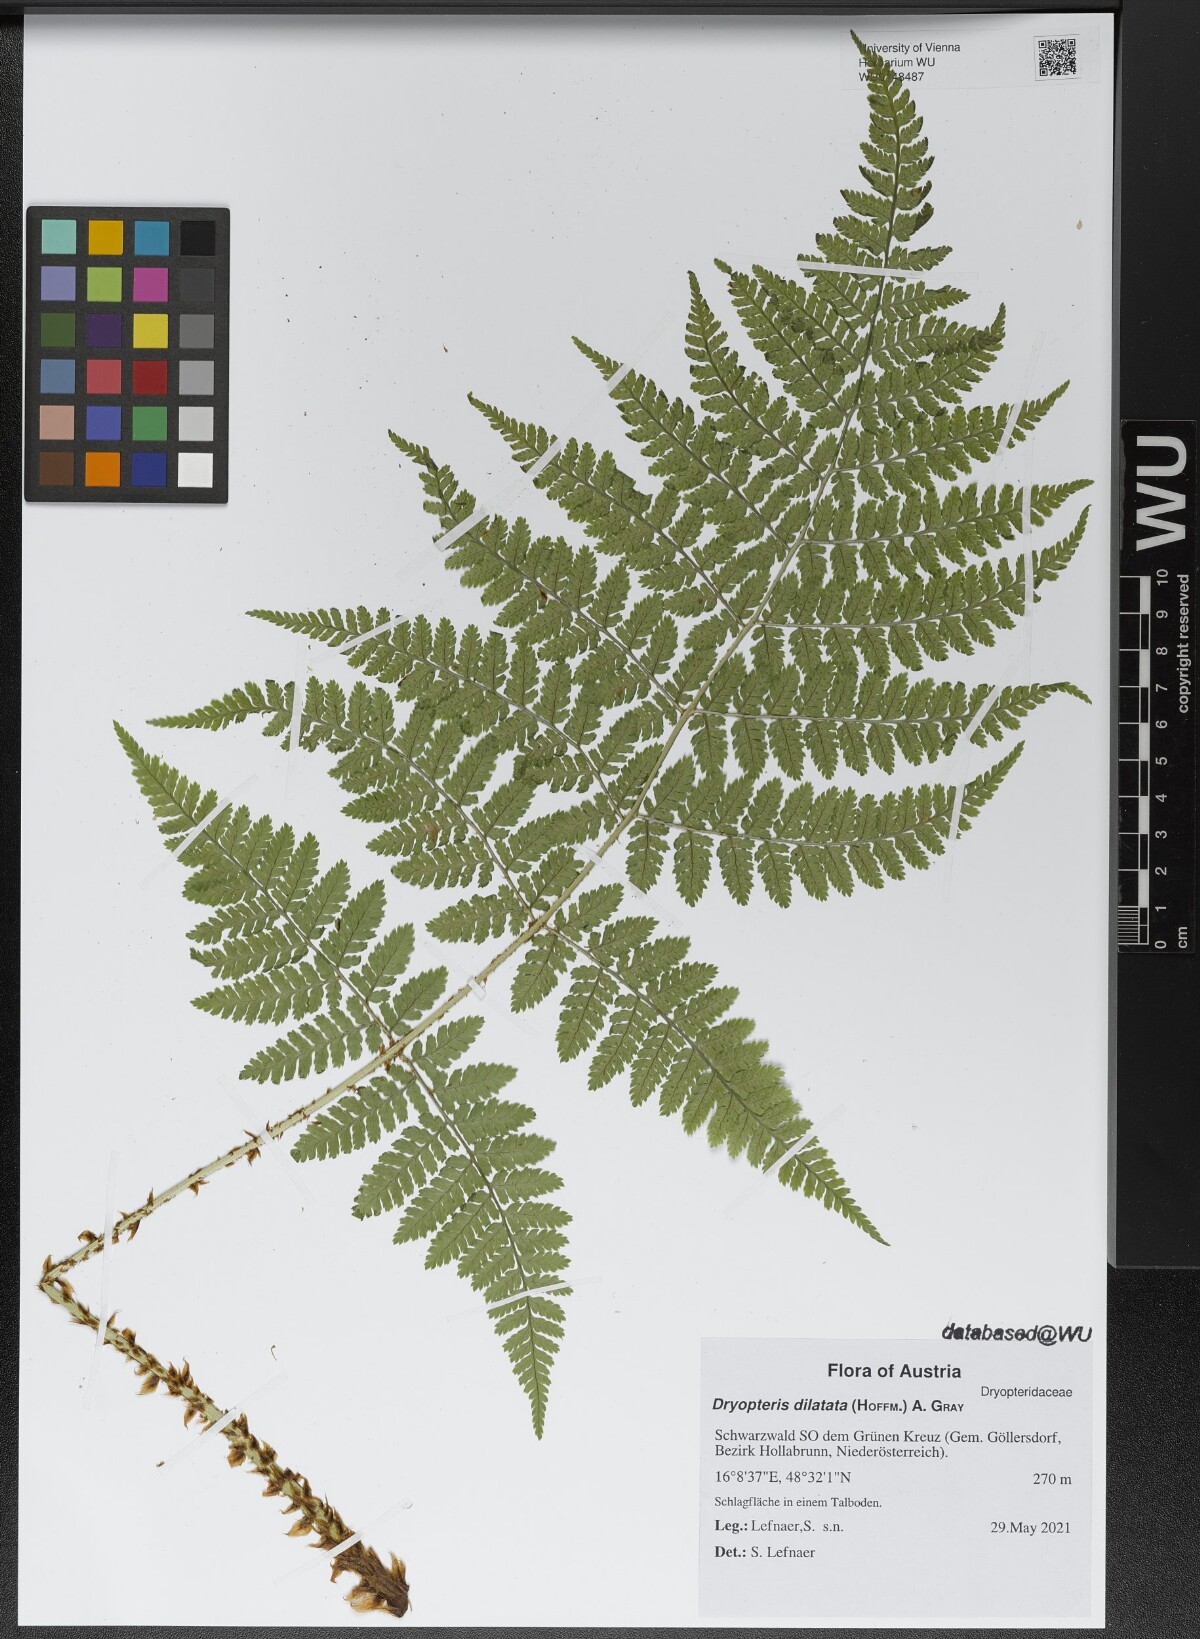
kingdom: Plantae
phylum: Tracheophyta
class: Polypodiopsida
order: Polypodiales
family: Dryopteridaceae
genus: Dryopteris
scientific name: Dryopteris dilatata
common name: Broad buckler-fern
